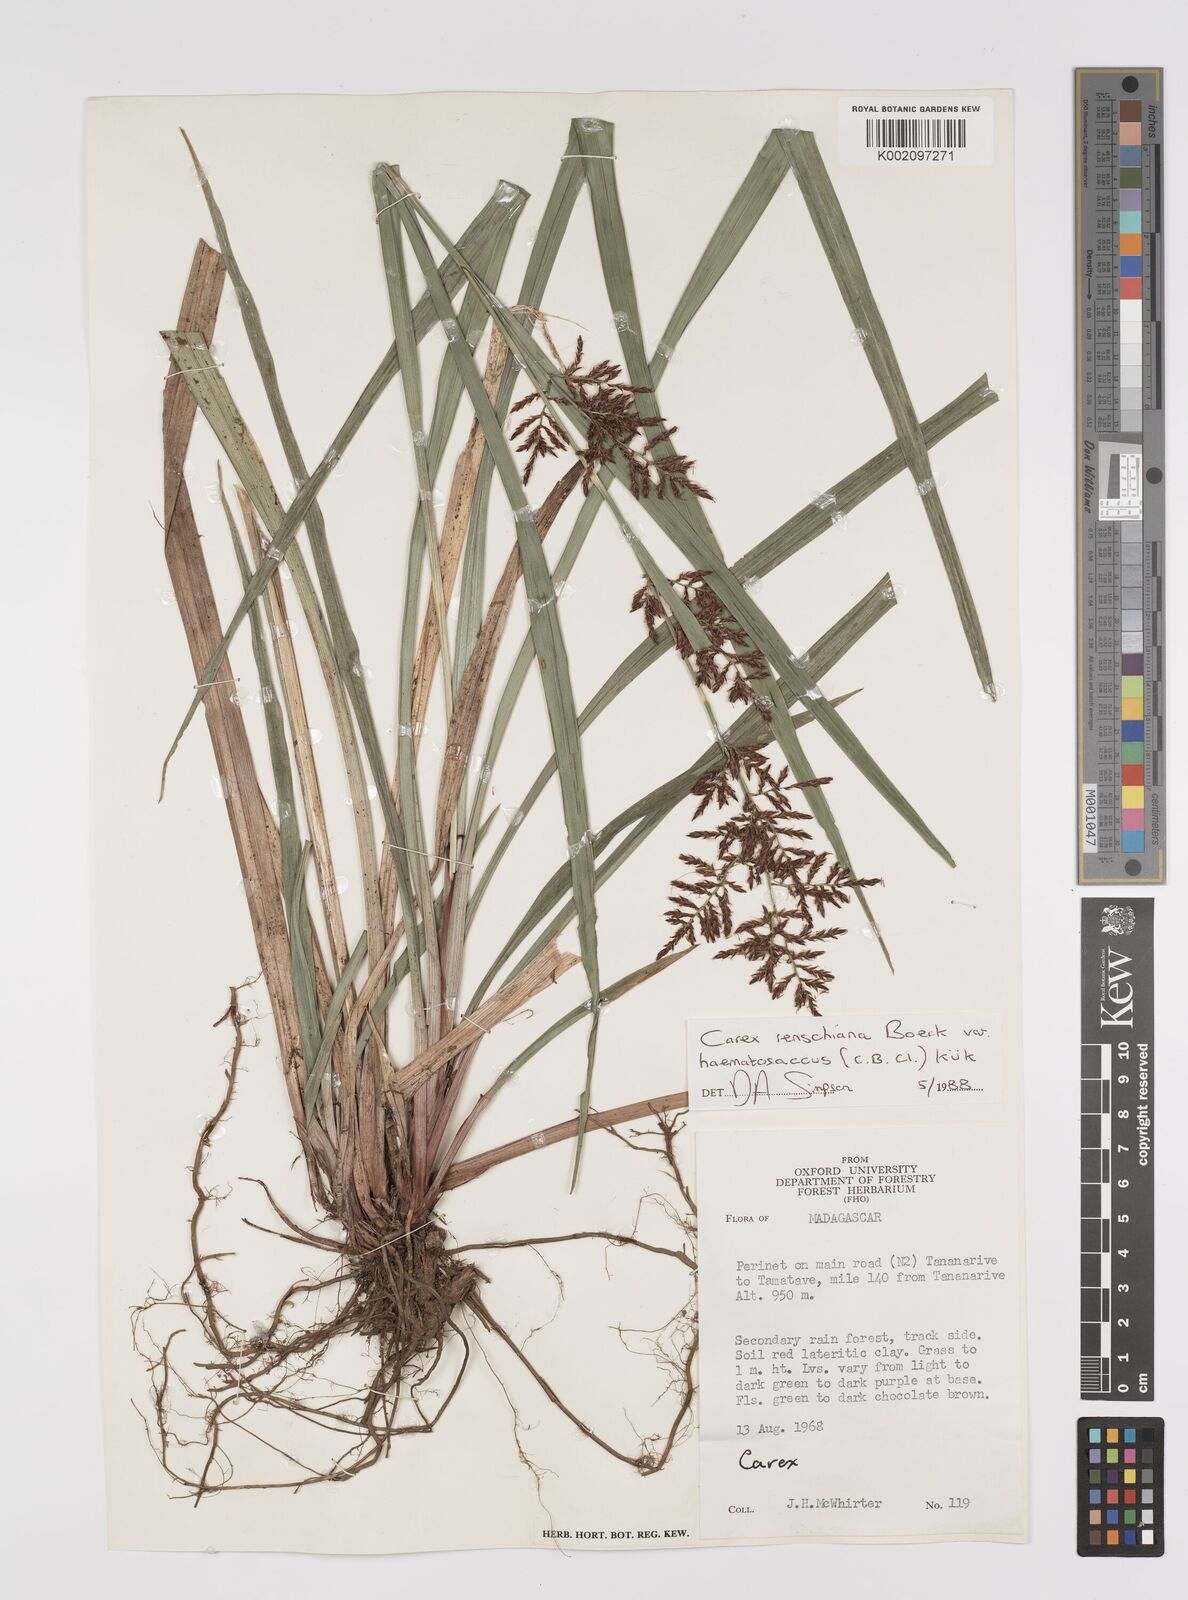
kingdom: Plantae
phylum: Tracheophyta
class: Liliopsida
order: Poales
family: Cyperaceae
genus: Carex
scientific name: Carex renschiana
